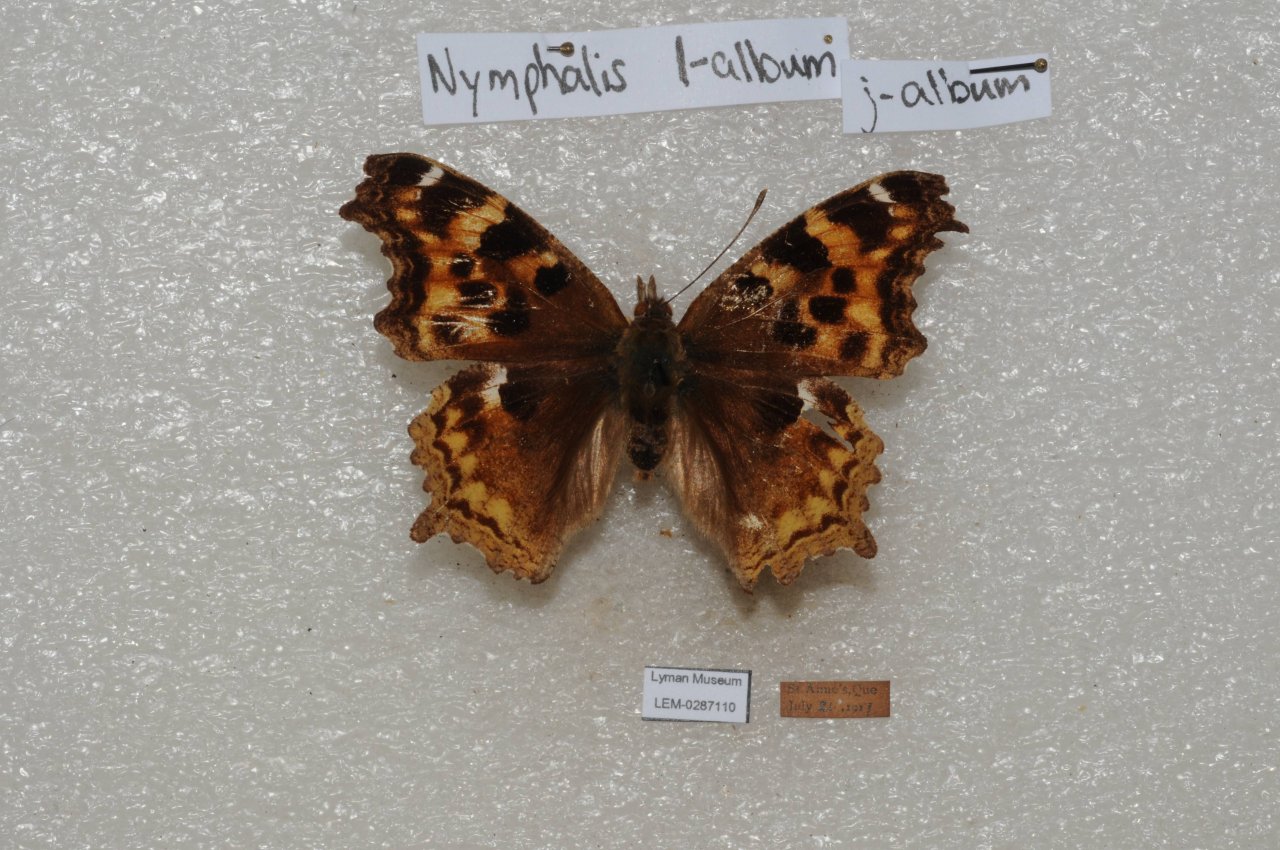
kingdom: Animalia
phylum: Arthropoda
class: Insecta
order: Lepidoptera
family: Nymphalidae
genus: Polygonia
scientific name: Polygonia vaualbum
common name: Compton Tortoiseshell
